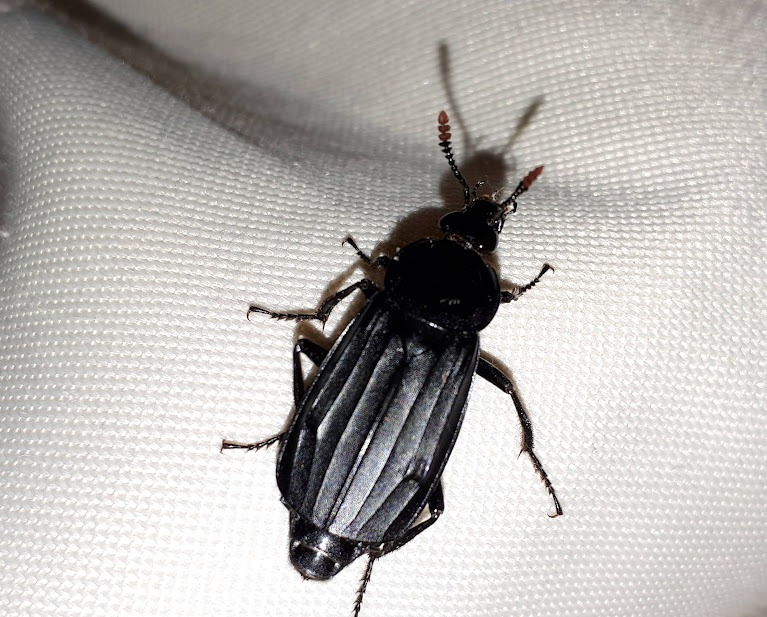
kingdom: Animalia
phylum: Arthropoda
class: Insecta
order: Coleoptera
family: Staphylinidae
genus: Necrodes
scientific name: Necrodes littoralis
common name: Ligrøver
